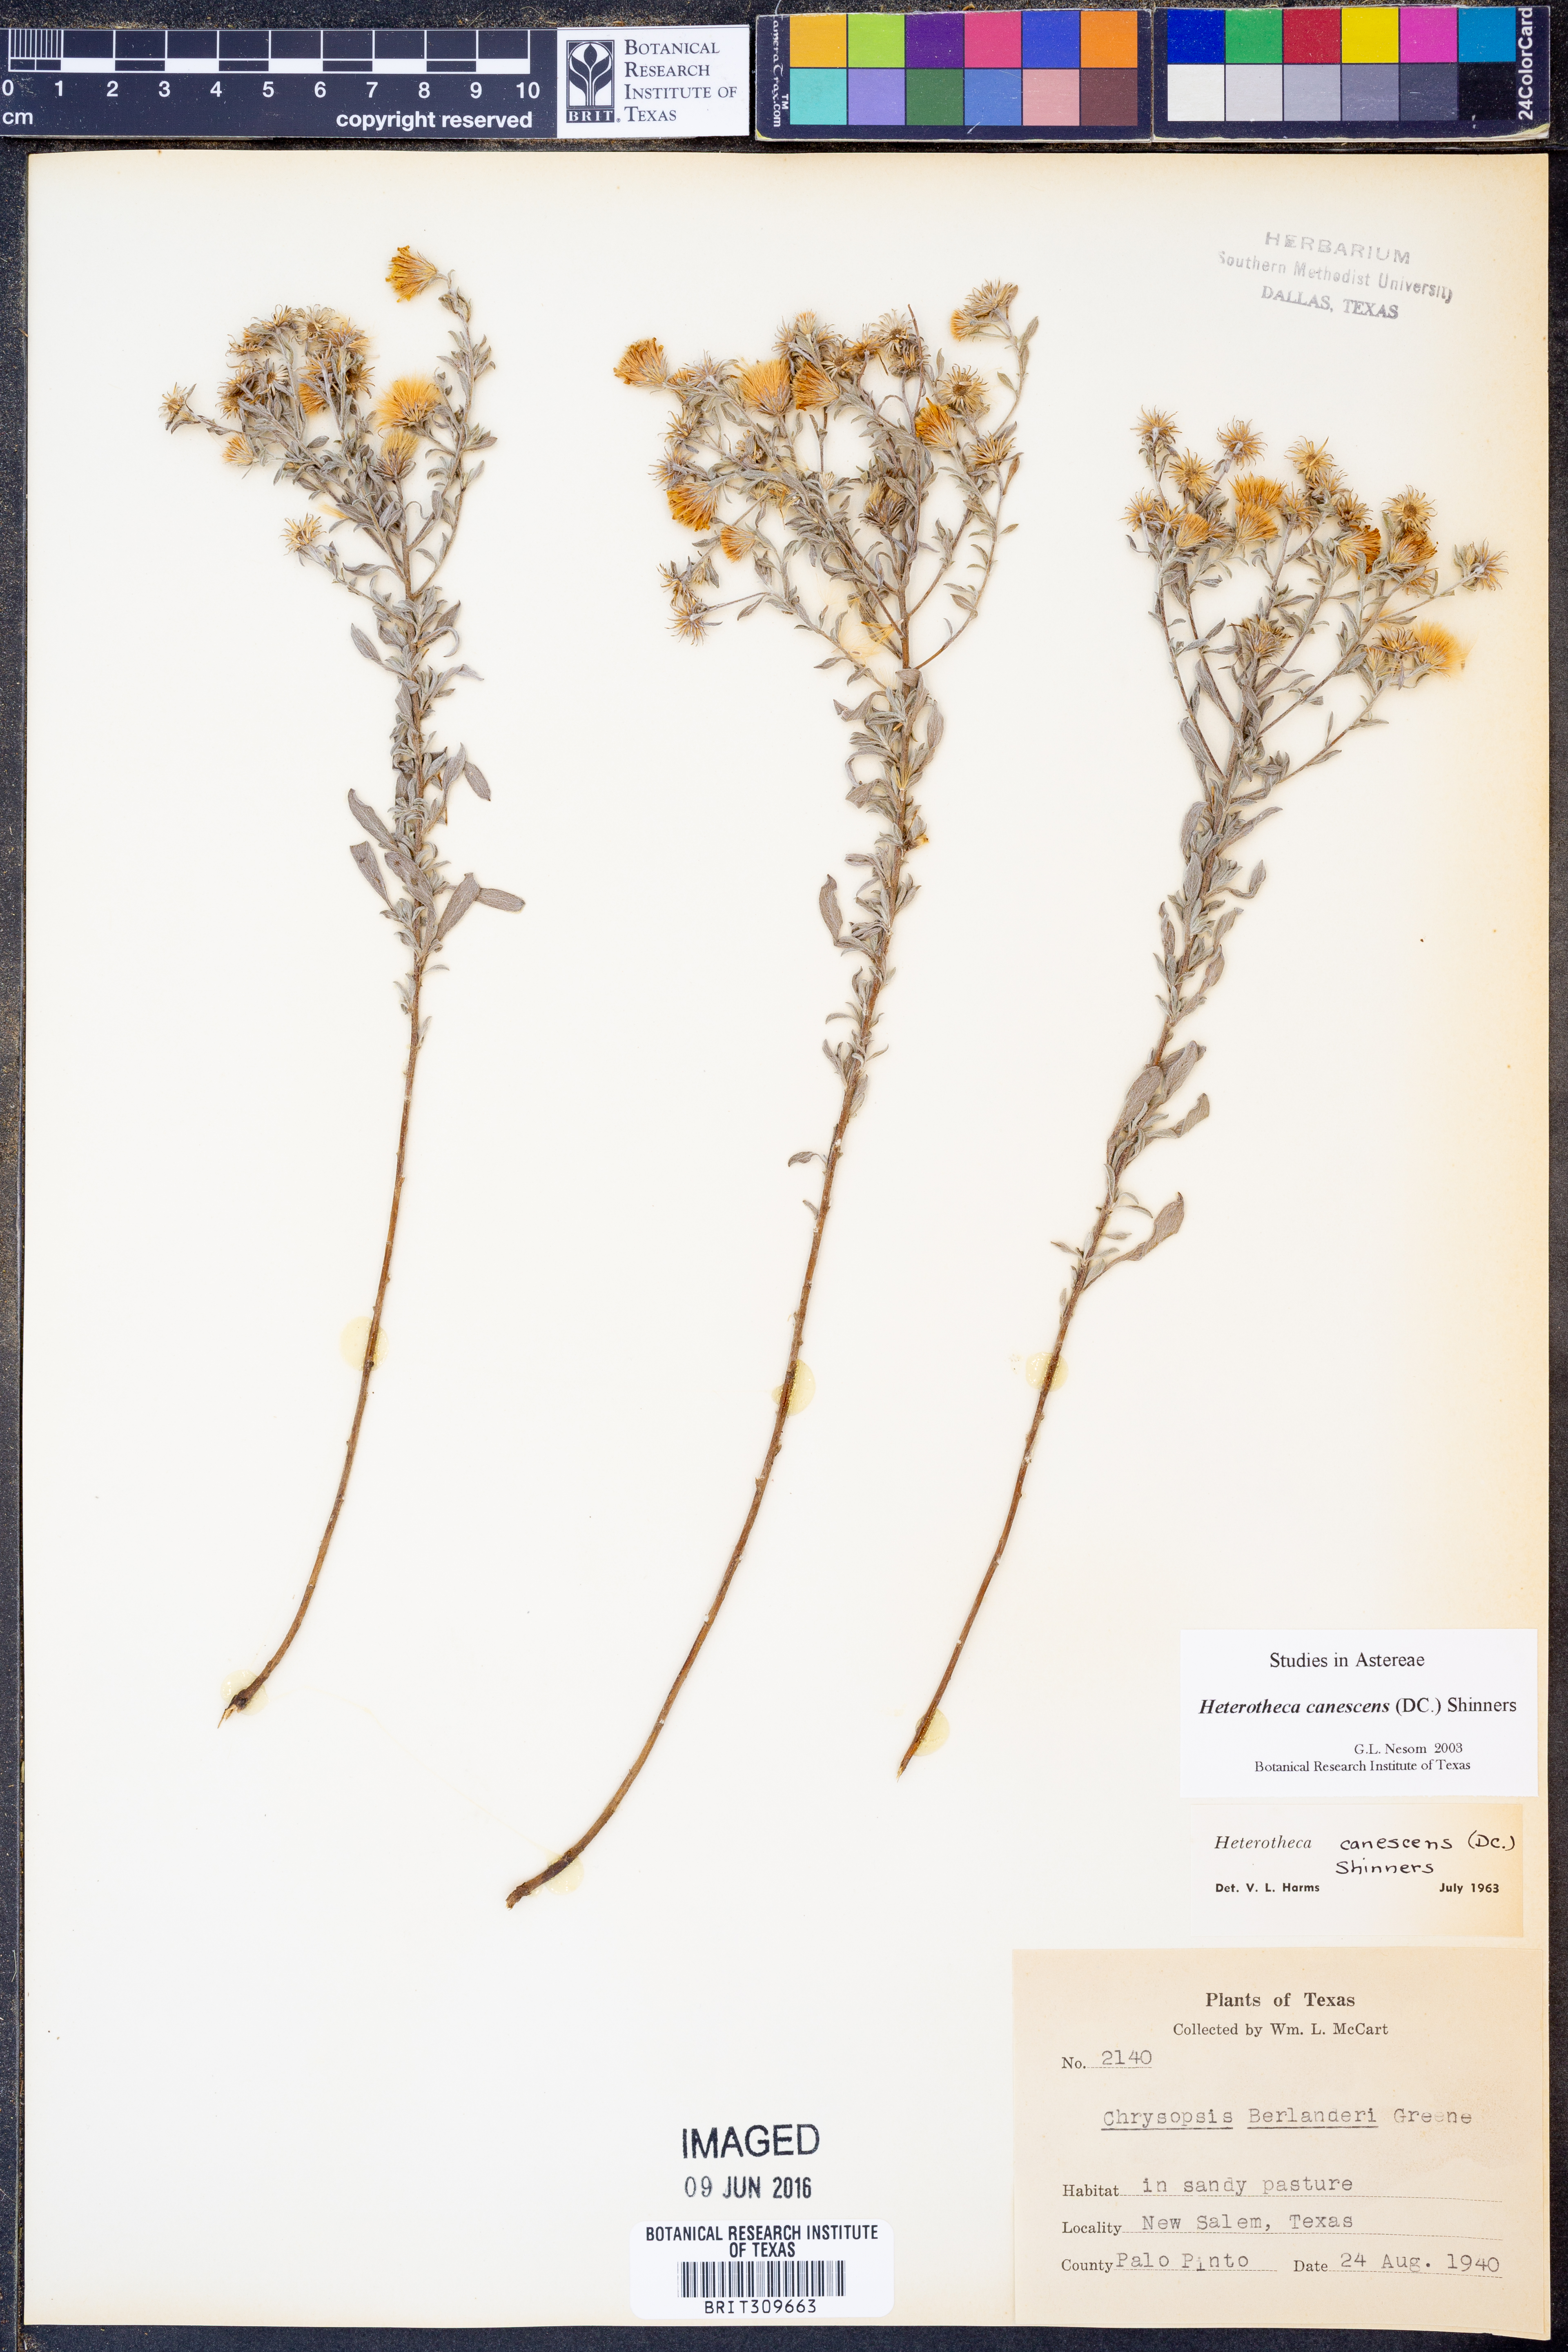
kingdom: Plantae
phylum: Tracheophyta
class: Magnoliopsida
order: Asterales
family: Asteraceae
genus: Heterotheca
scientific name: Heterotheca canescens
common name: Hoary golden-aster
